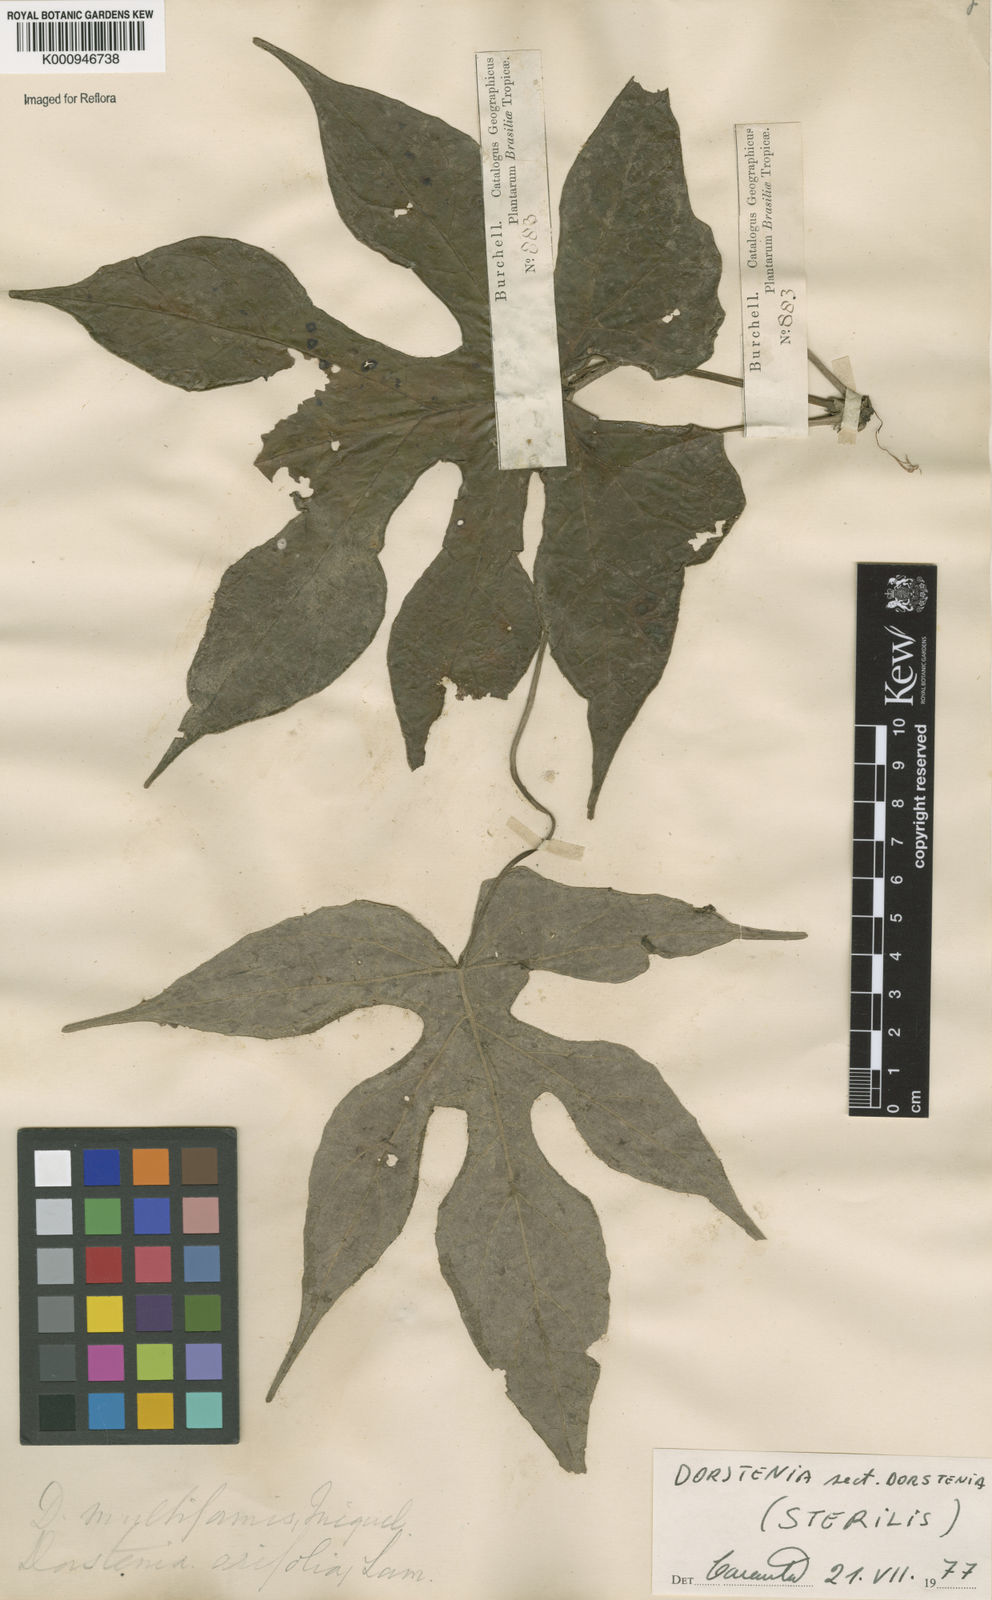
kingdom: Plantae
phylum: Tracheophyta
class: Magnoliopsida
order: Rosales
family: Moraceae
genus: Dorstenia
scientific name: Dorstenia
